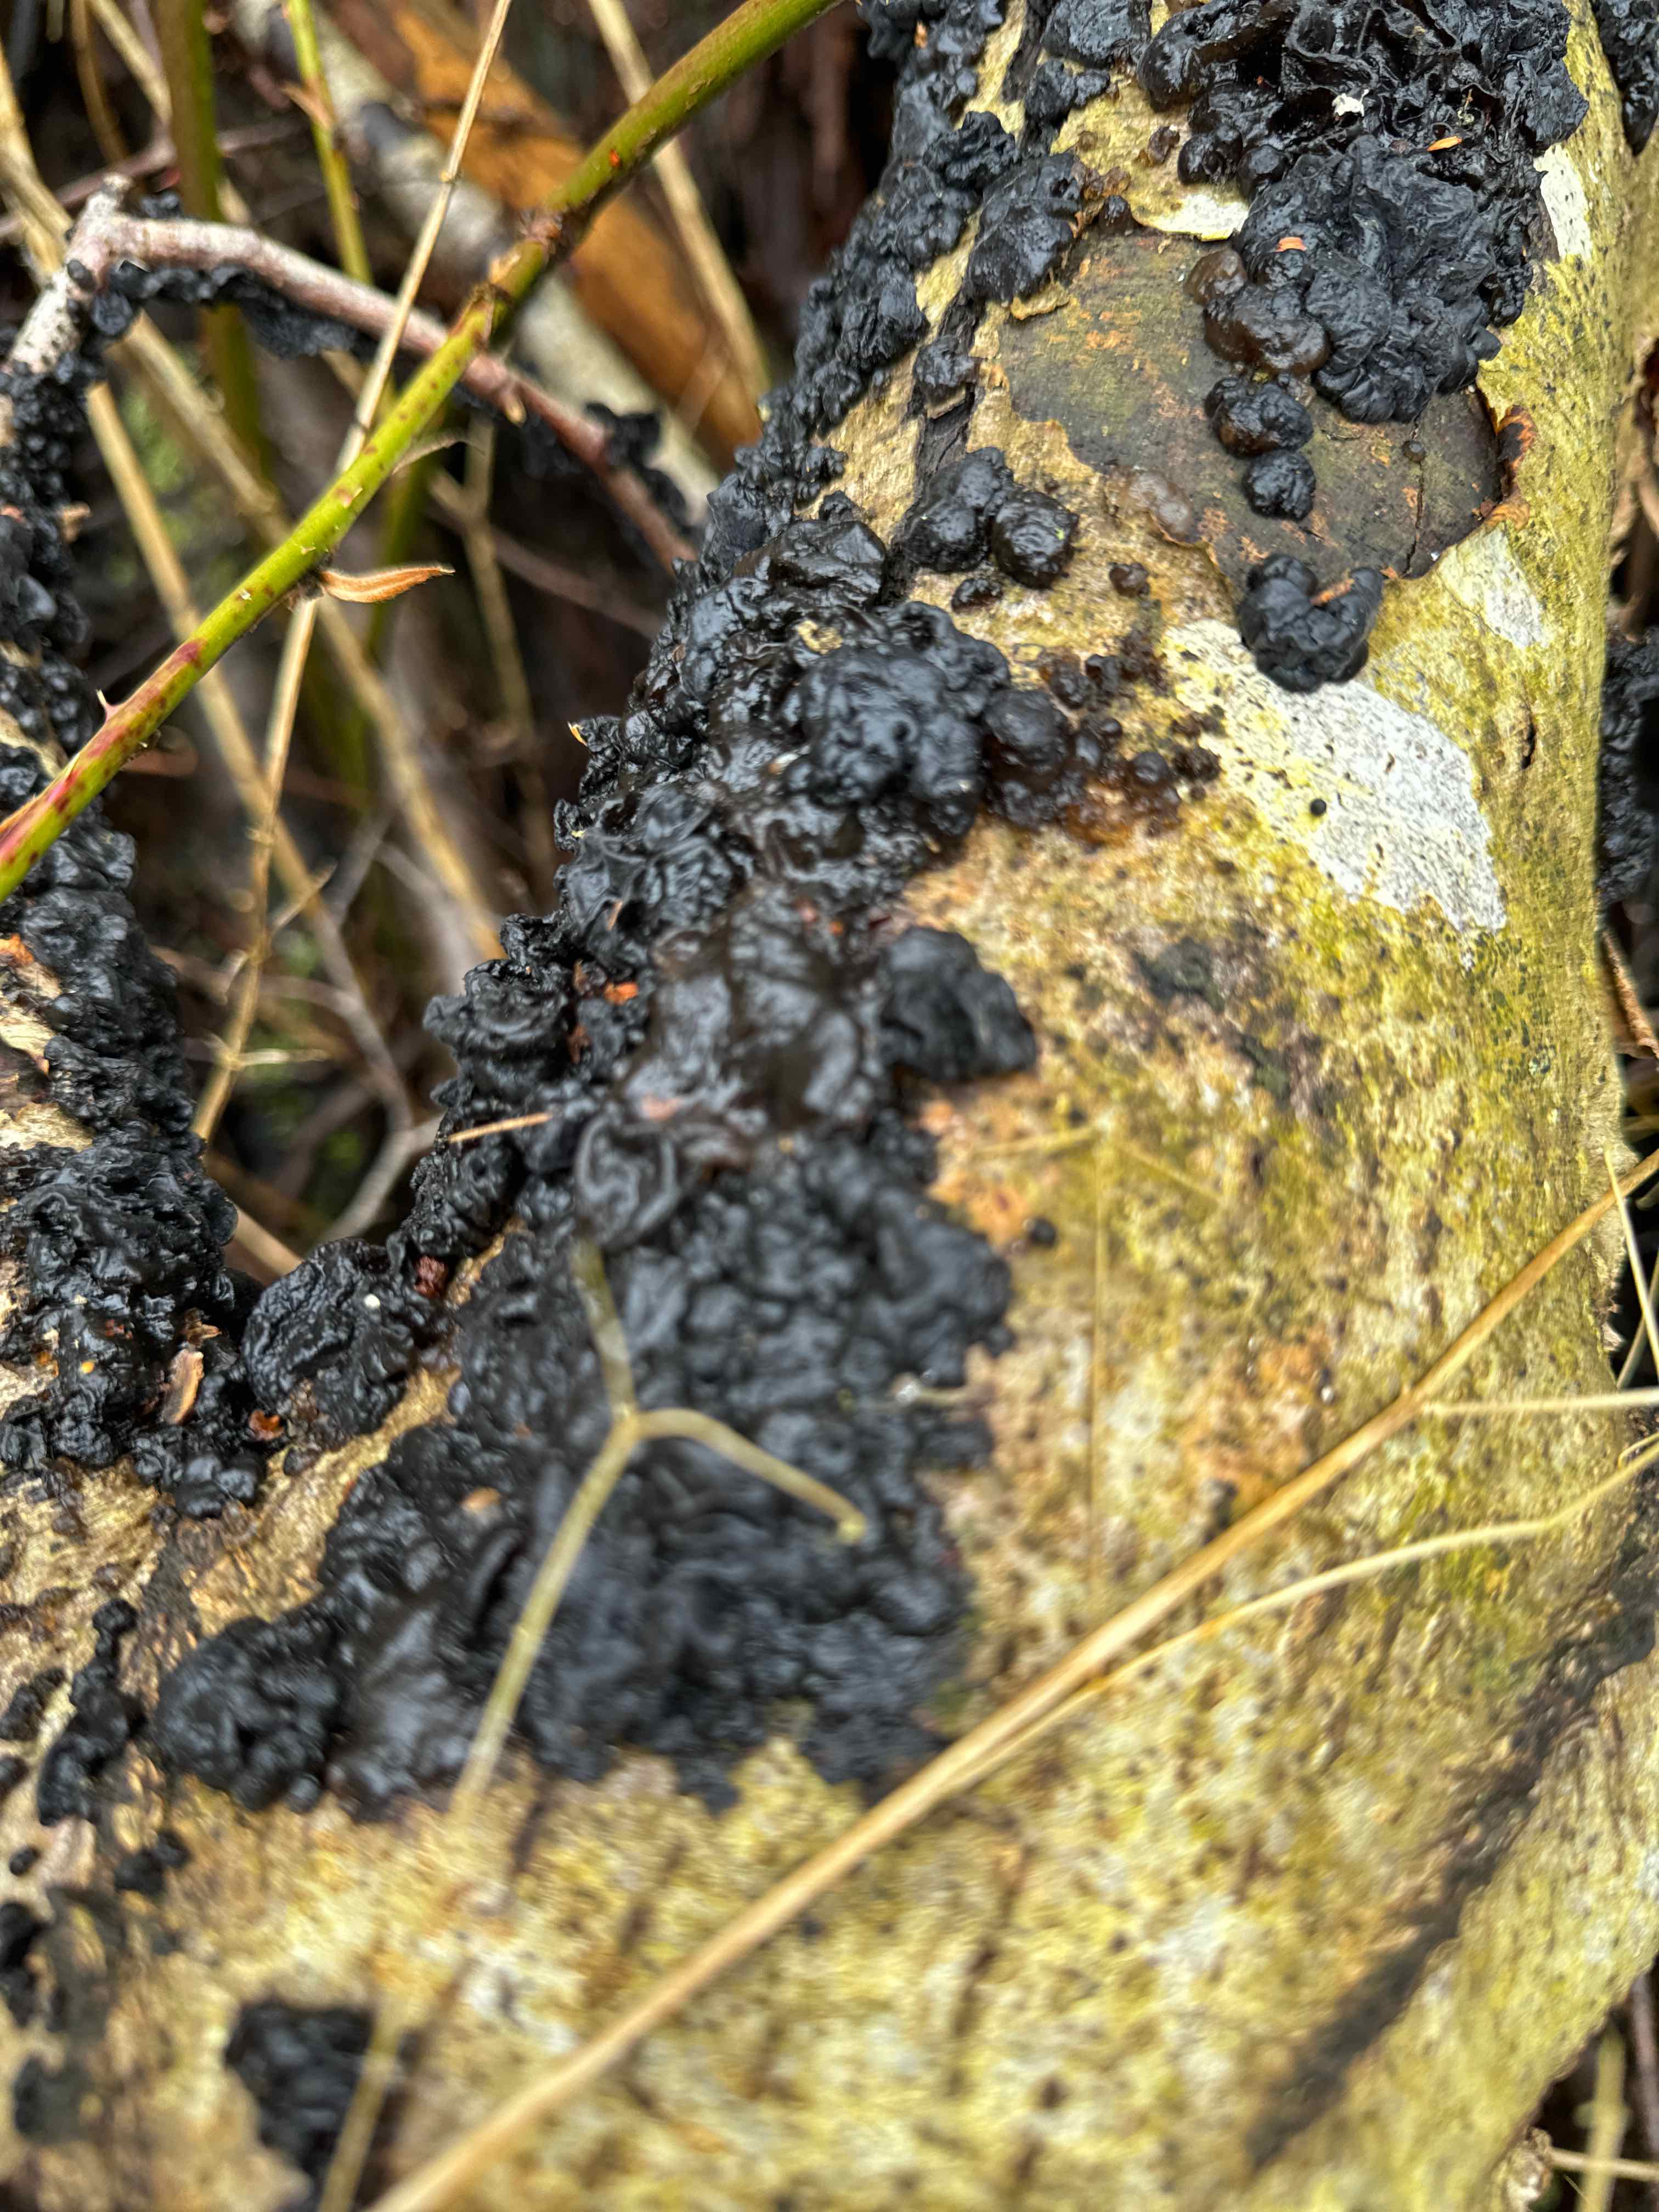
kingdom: Fungi
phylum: Basidiomycota
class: Agaricomycetes
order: Auriculariales
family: Auriculariaceae
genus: Exidia
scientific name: Exidia nigricans
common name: almindelig bævretop
